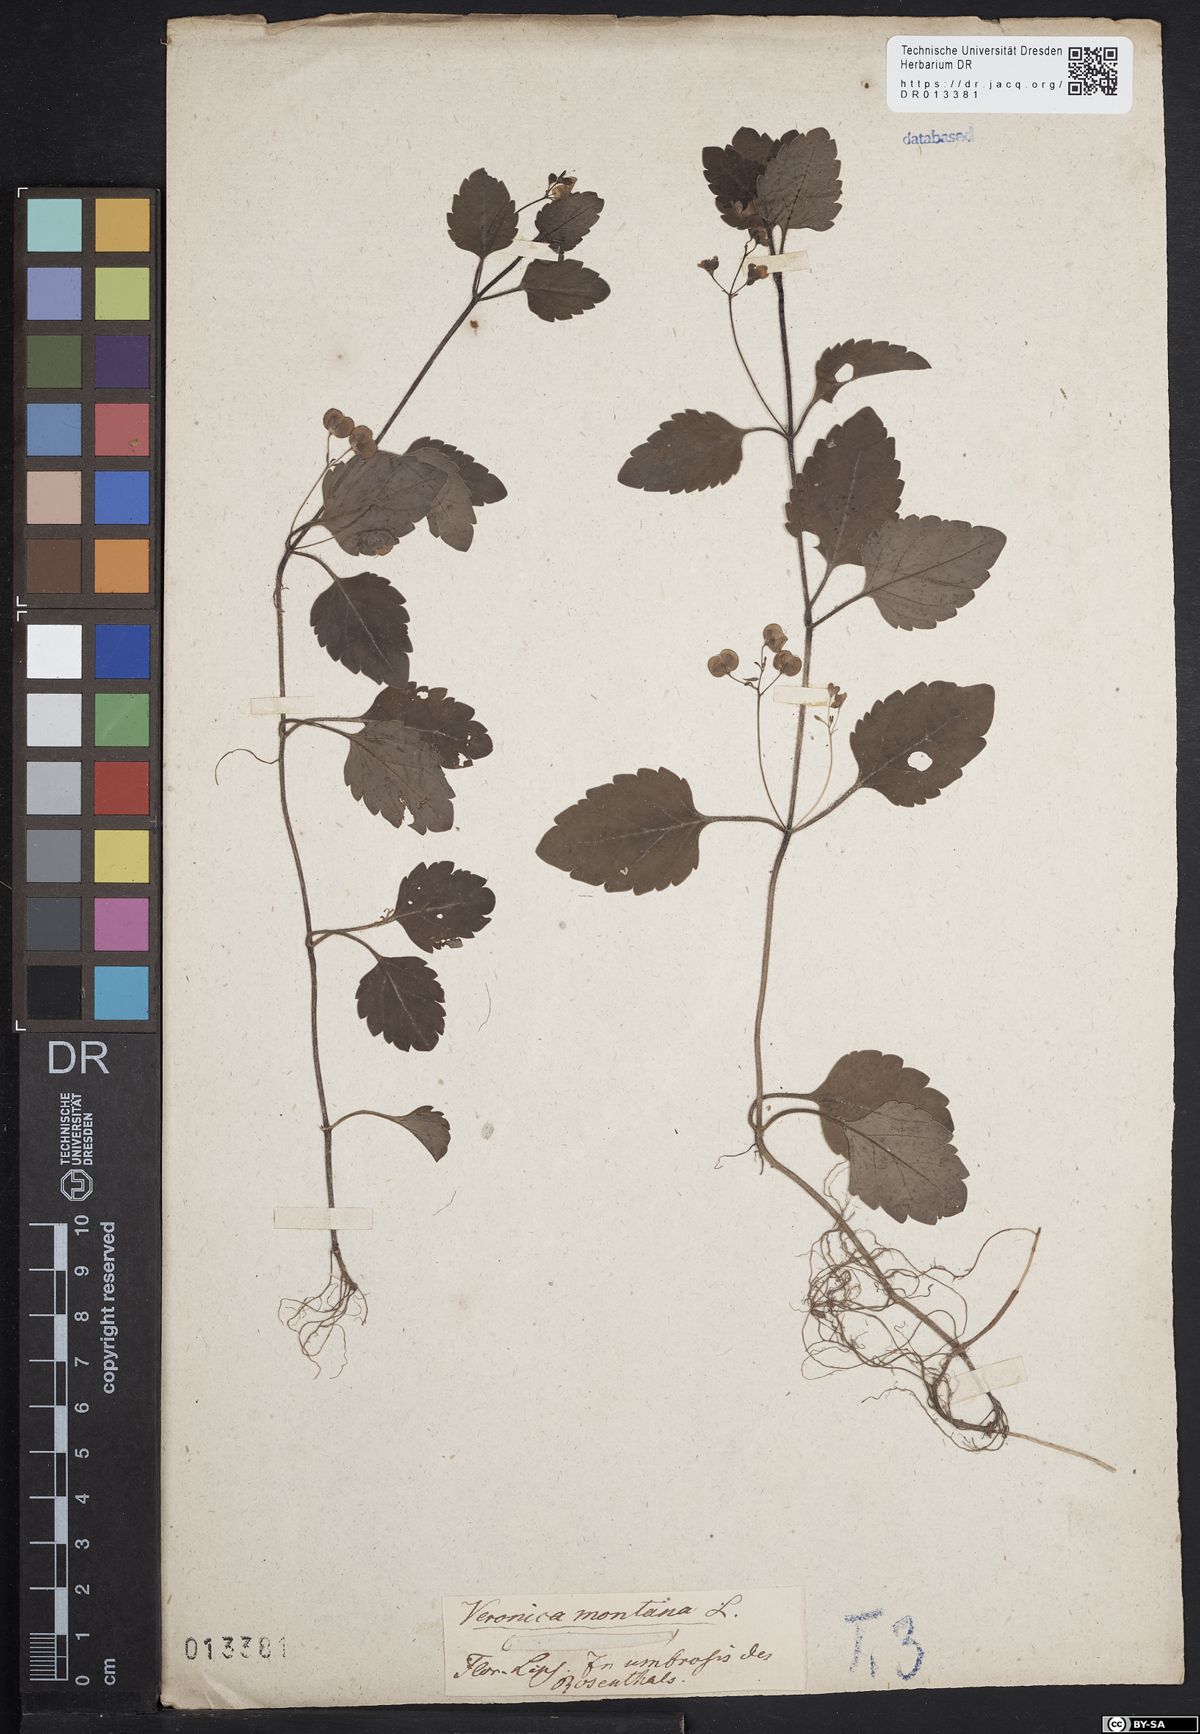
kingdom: Plantae
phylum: Tracheophyta
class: Magnoliopsida
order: Lamiales
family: Plantaginaceae
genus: Veronica
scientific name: Veronica montana
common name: Wood speedwell
